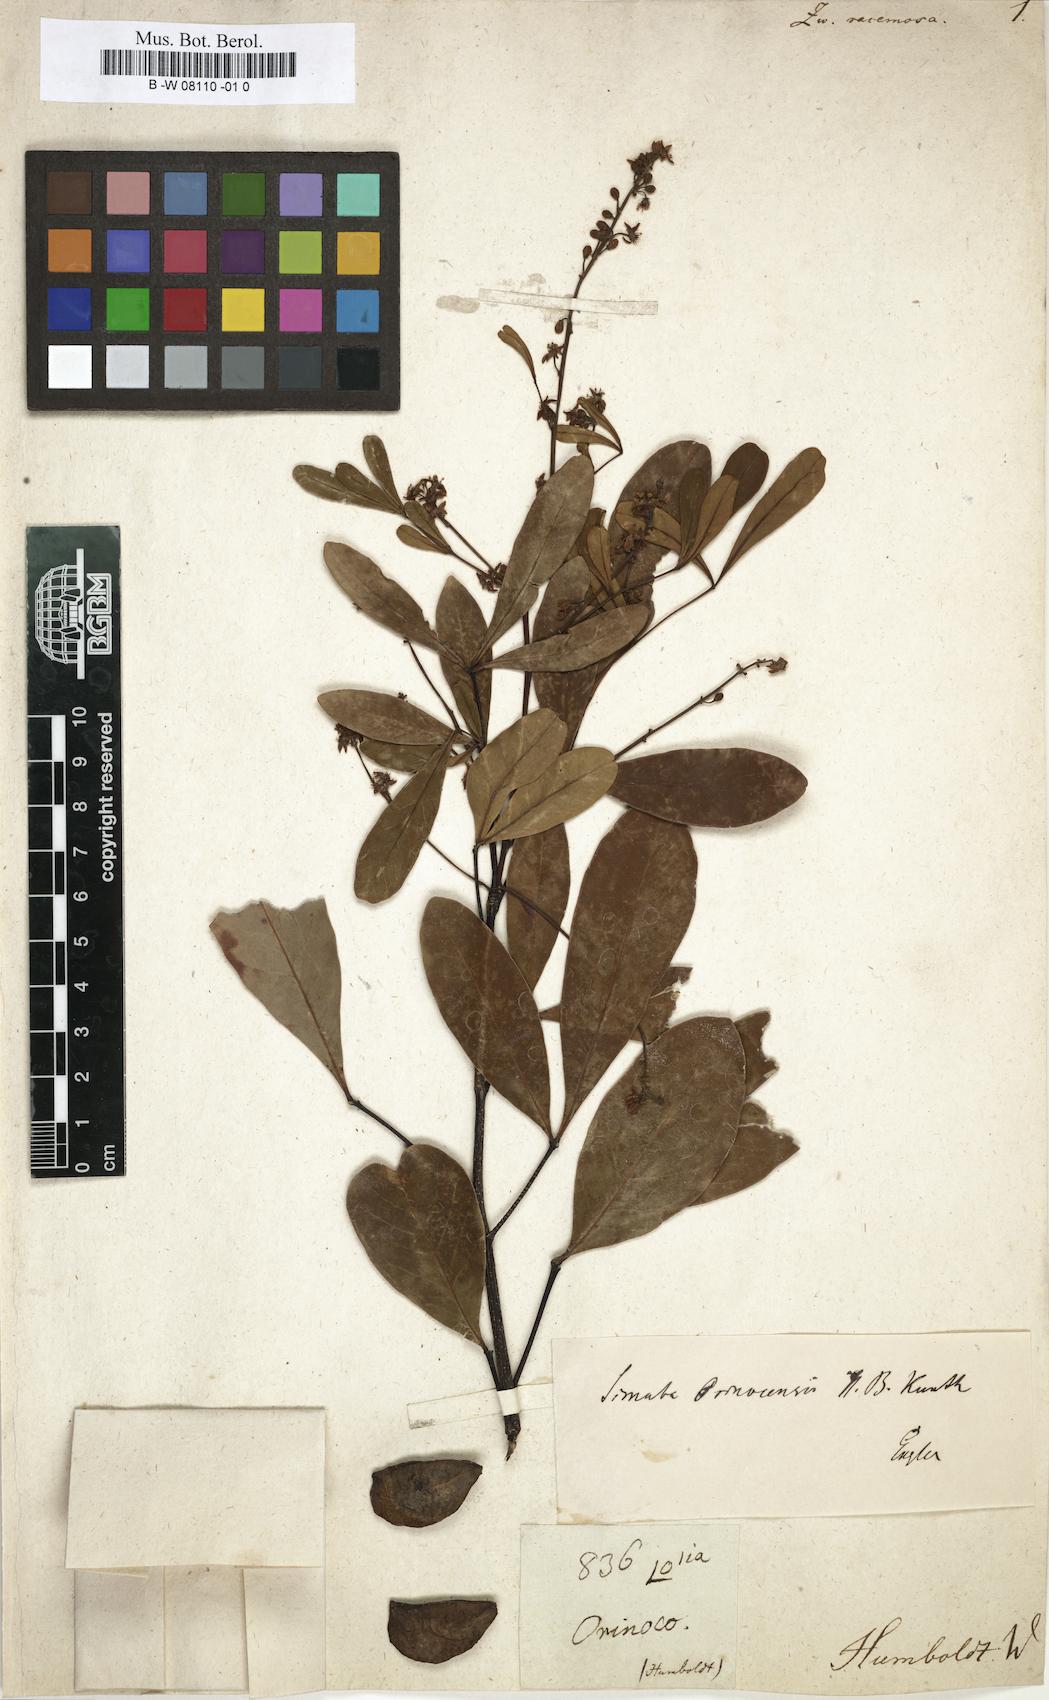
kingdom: Plantae
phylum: Tracheophyta
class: Magnoliopsida
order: Solanales
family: Solanaceae
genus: Nolana
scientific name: Nolana
